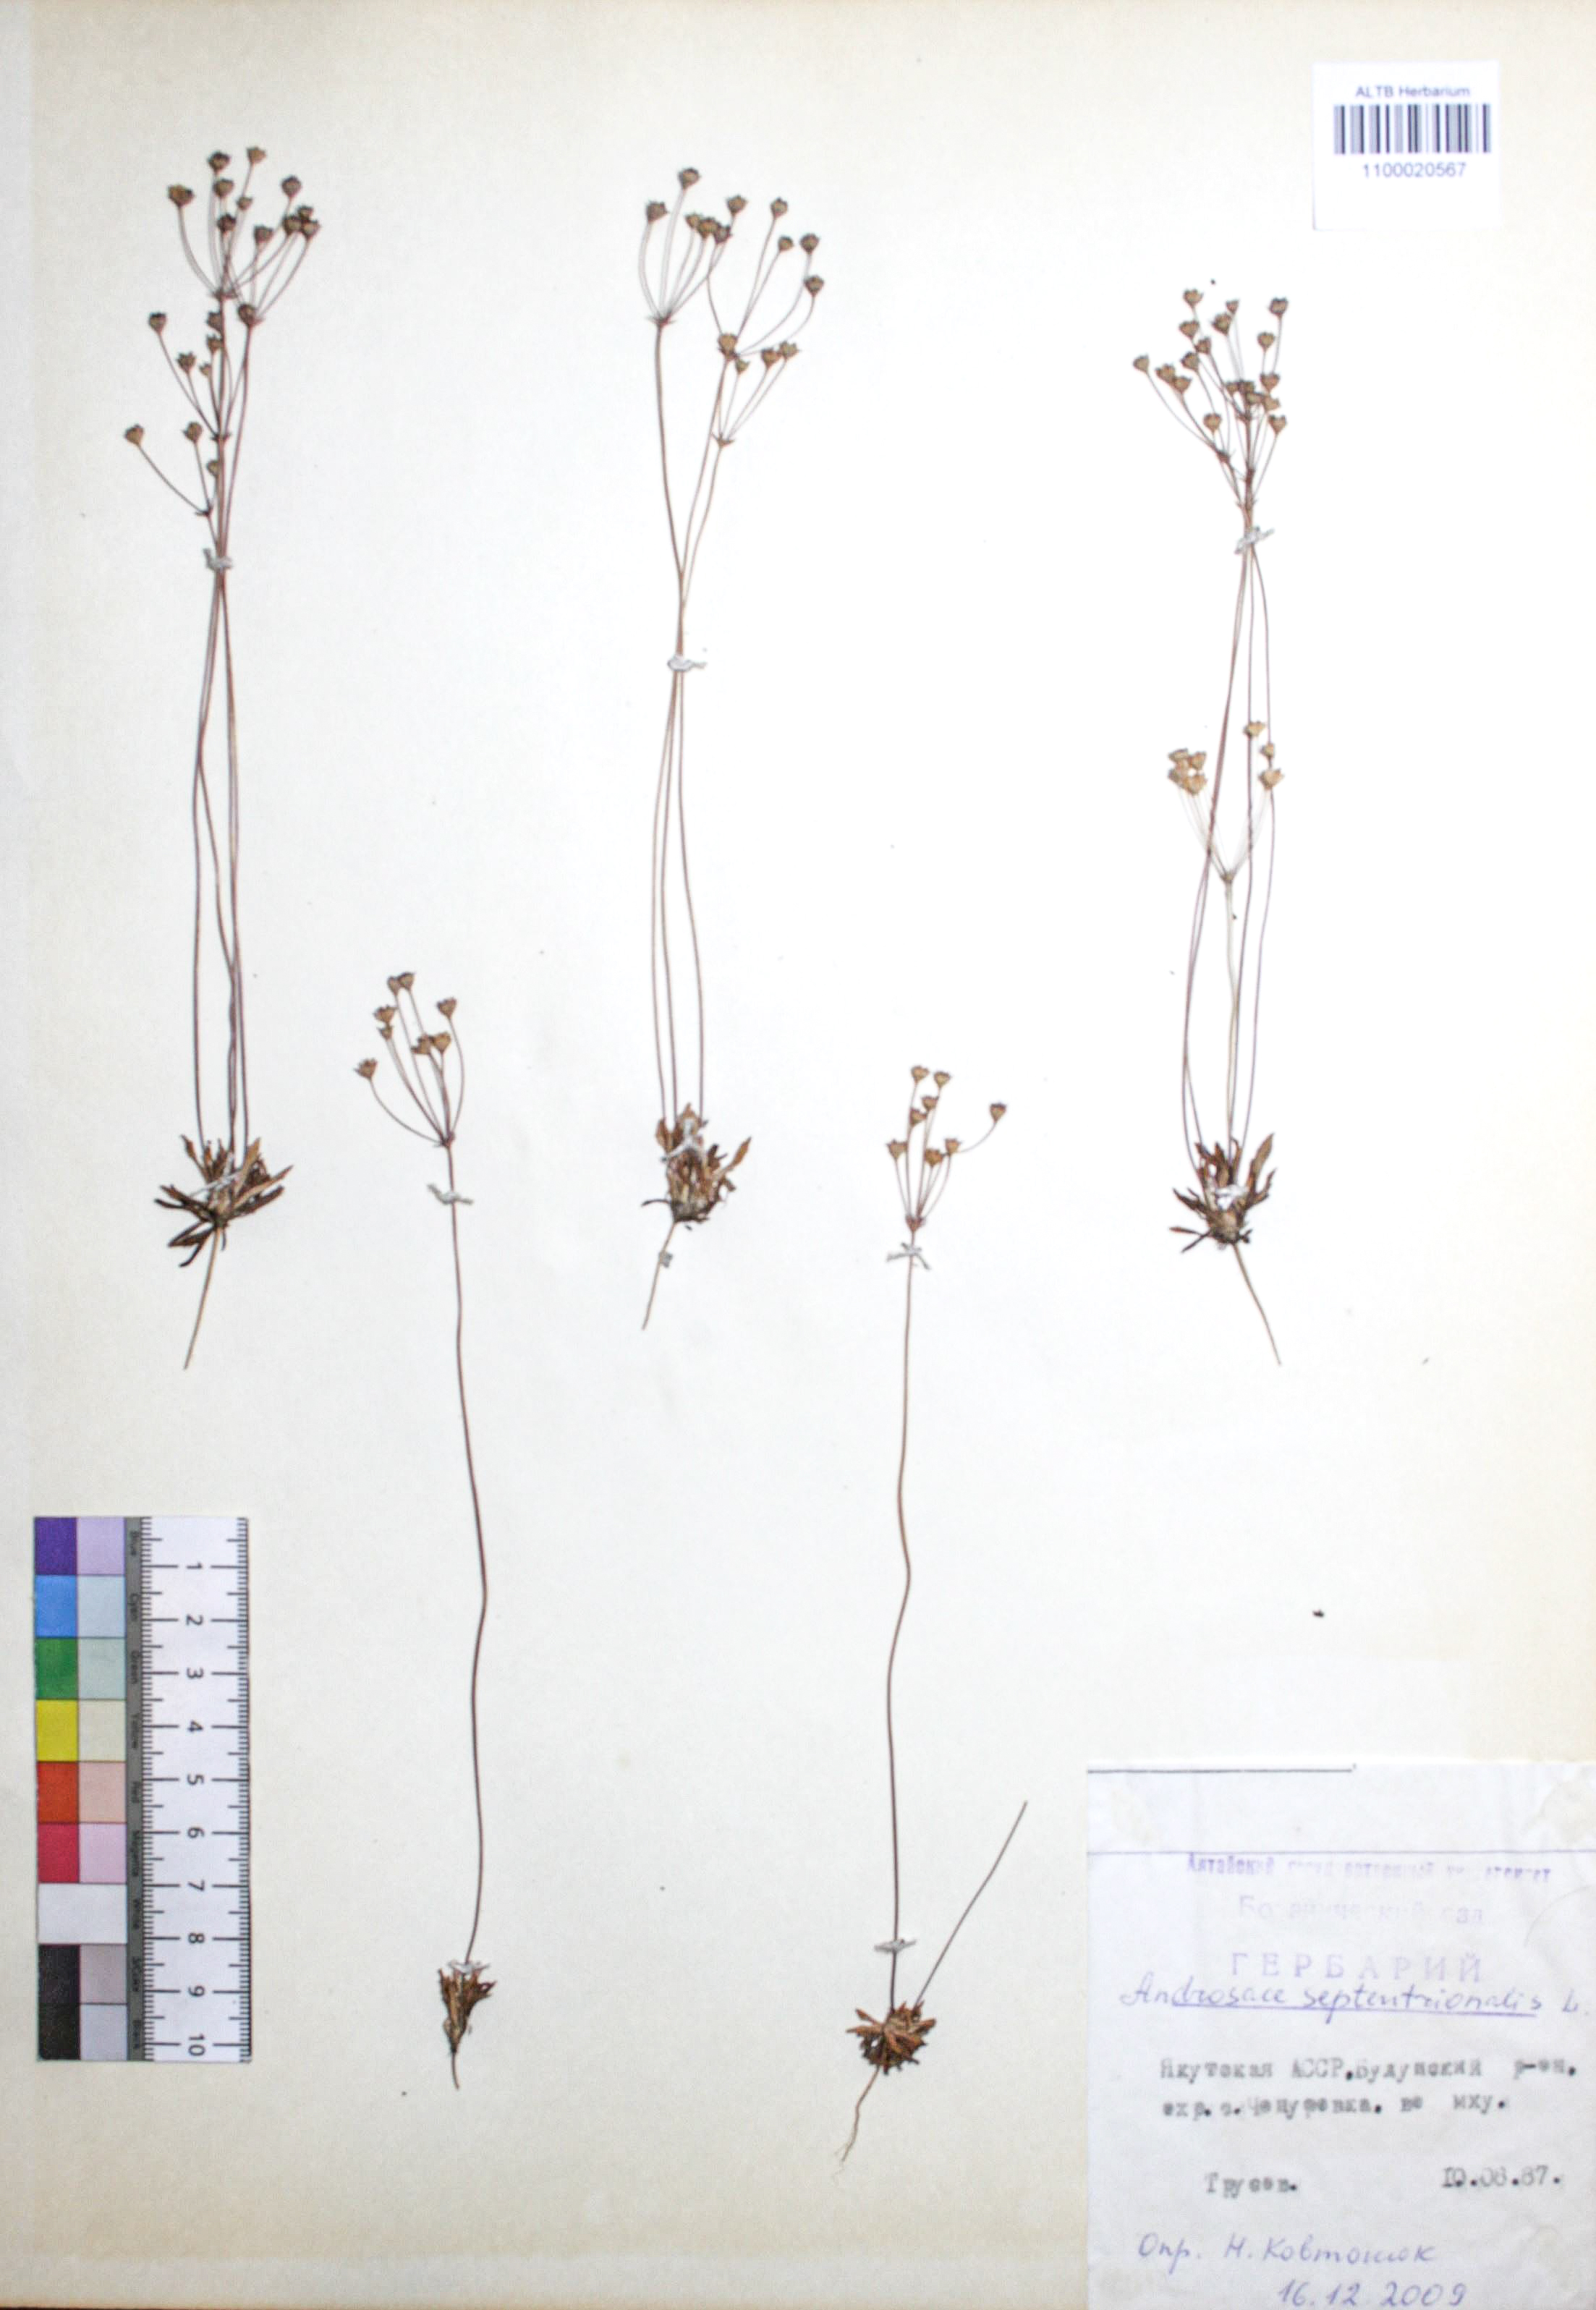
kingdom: Plantae
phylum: Tracheophyta
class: Magnoliopsida
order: Ericales
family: Primulaceae
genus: Androsace
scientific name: Androsace septentrionalis
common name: Hairy northern fairy-candelabra
